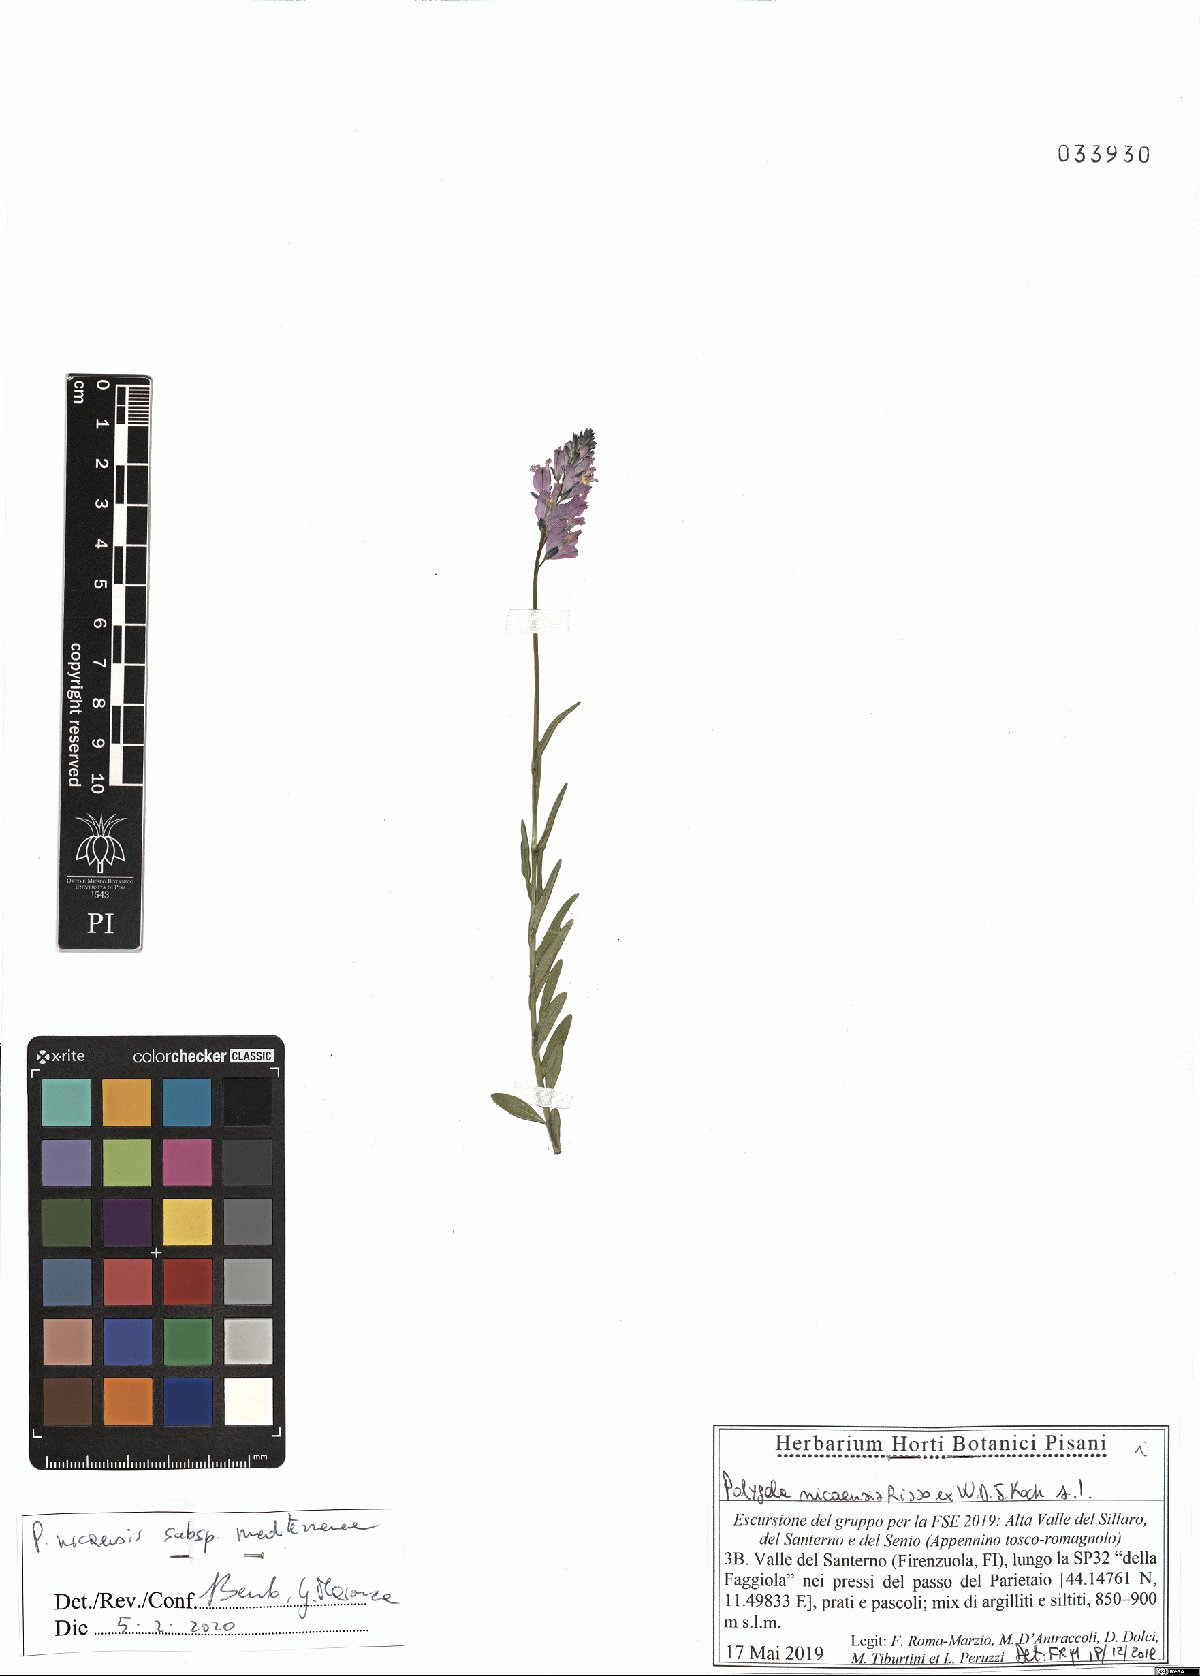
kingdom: Plantae
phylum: Tracheophyta
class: Magnoliopsida
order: Fabales
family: Polygalaceae
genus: Polygala
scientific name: Polygala nicaeensis
